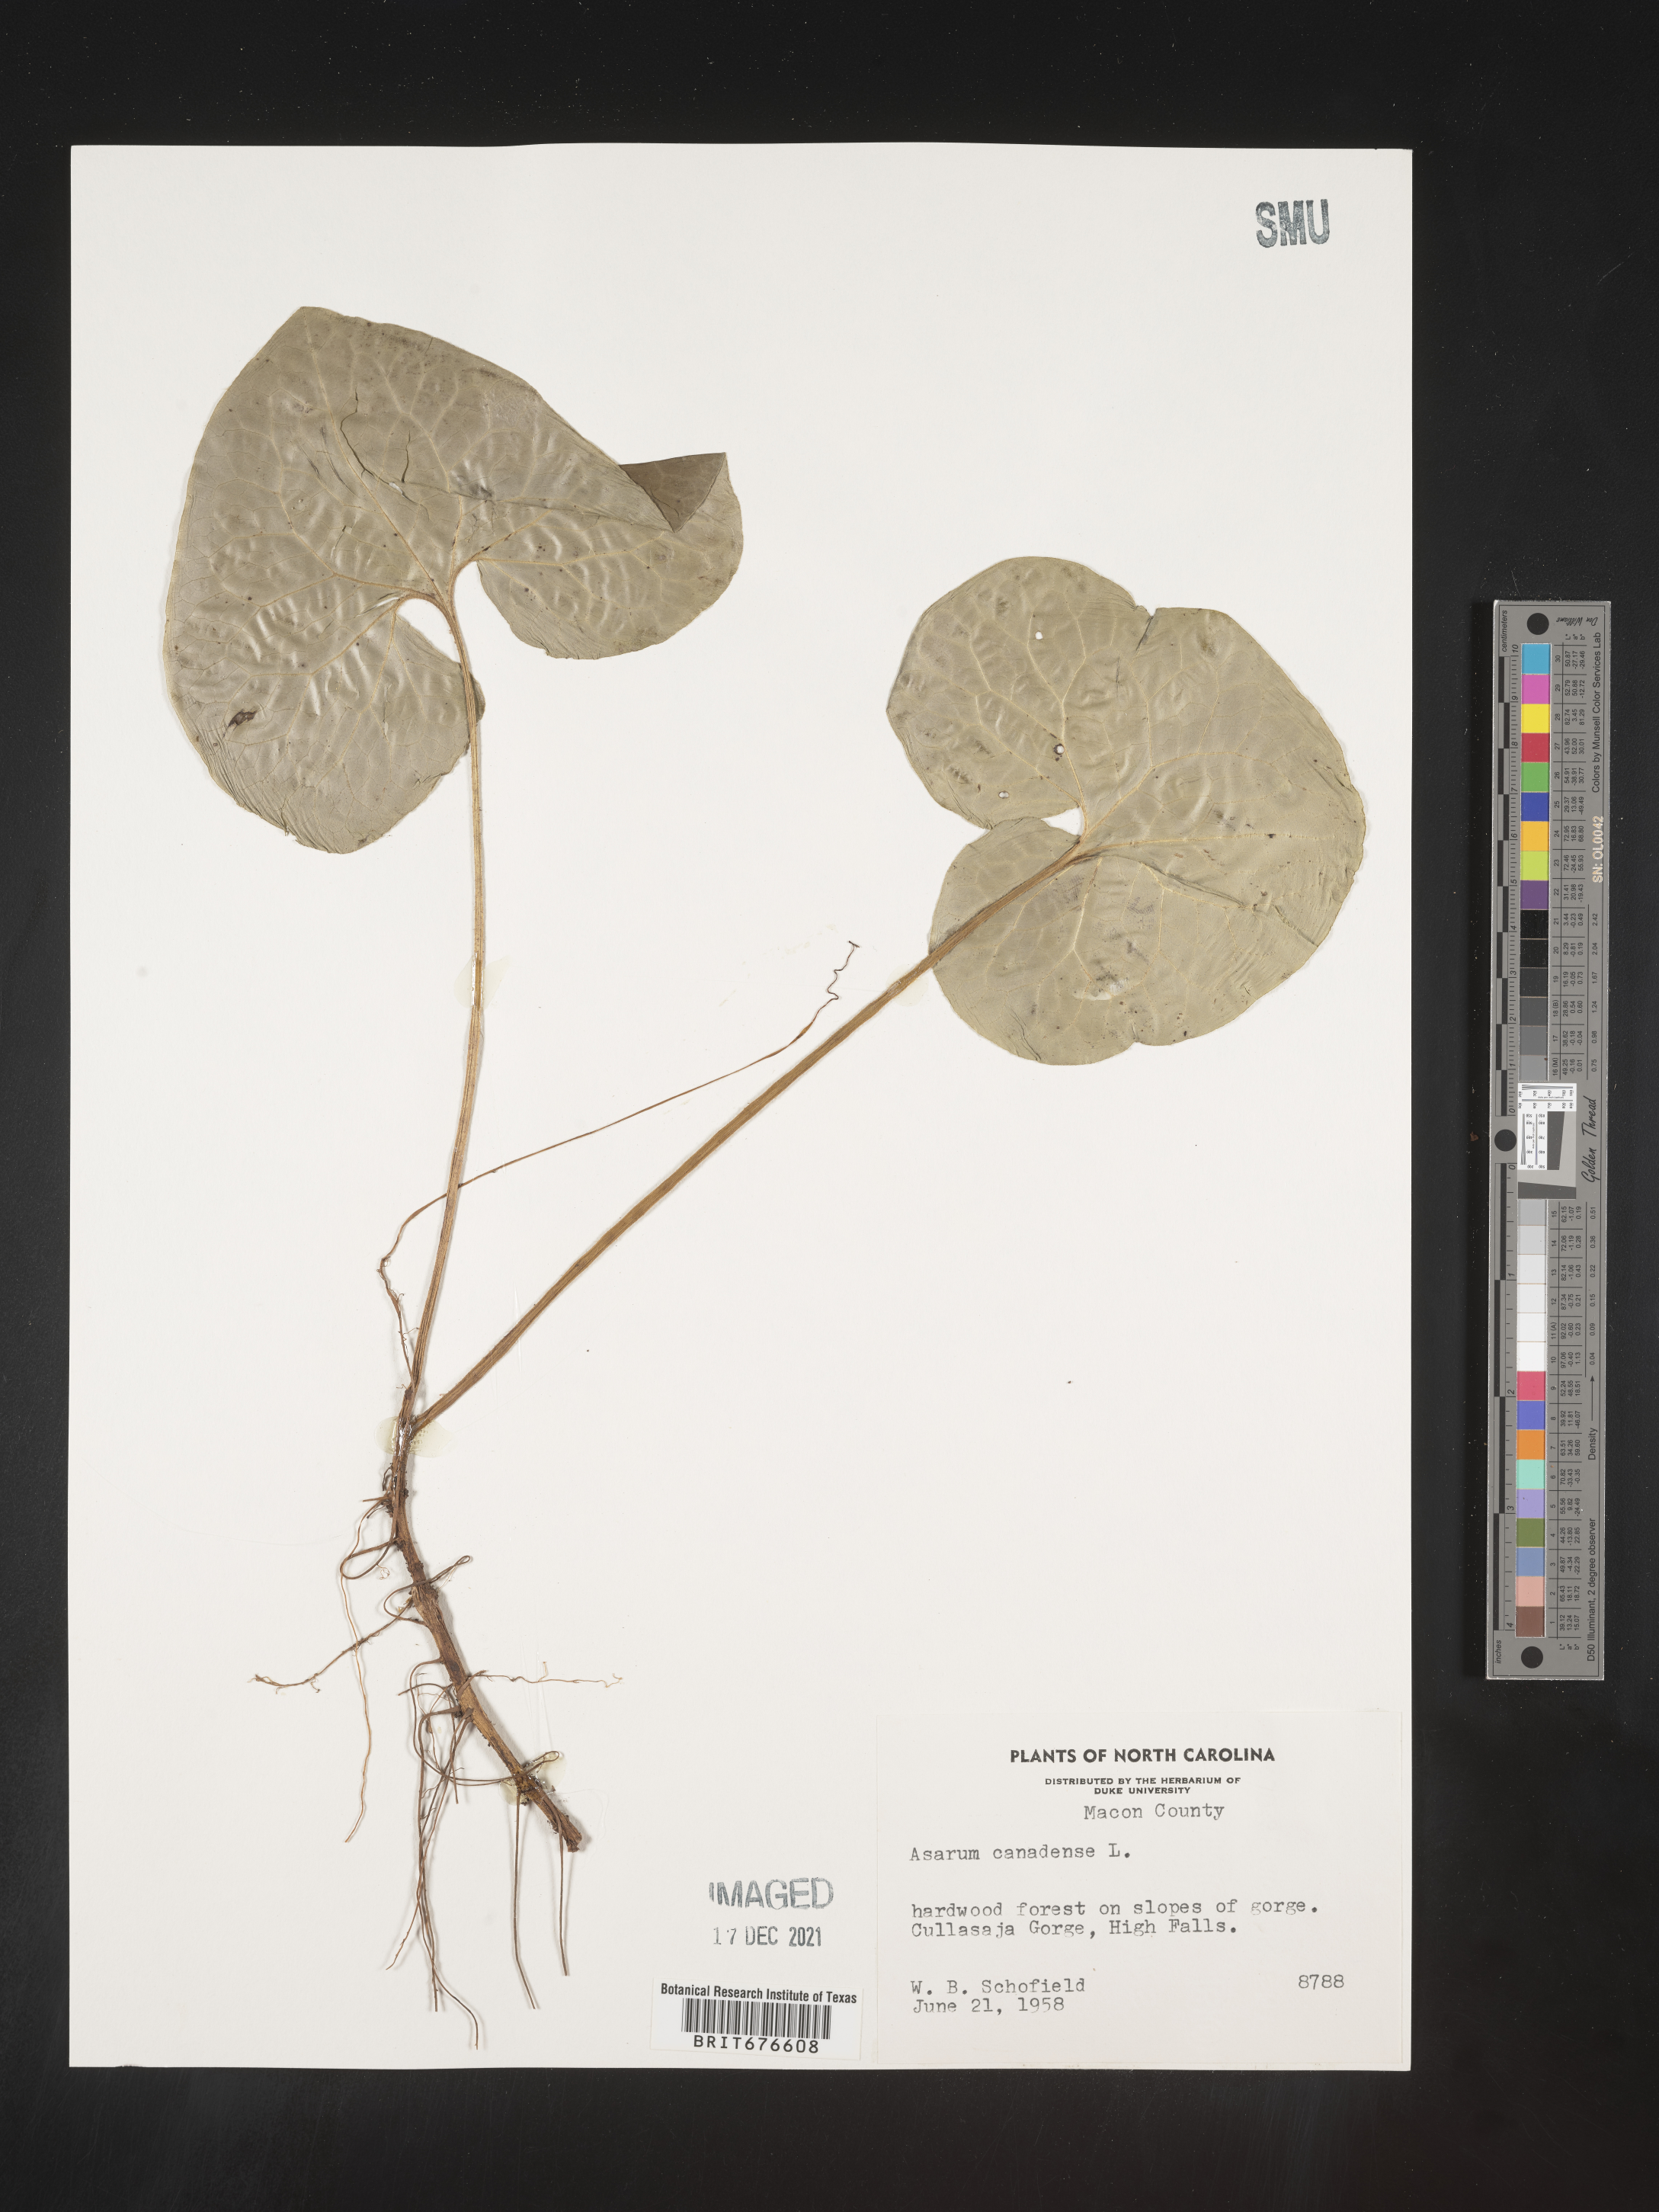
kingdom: Plantae
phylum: Tracheophyta
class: Magnoliopsida
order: Piperales
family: Aristolochiaceae
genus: Asarum
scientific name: Asarum canadense
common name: Wild ginger
